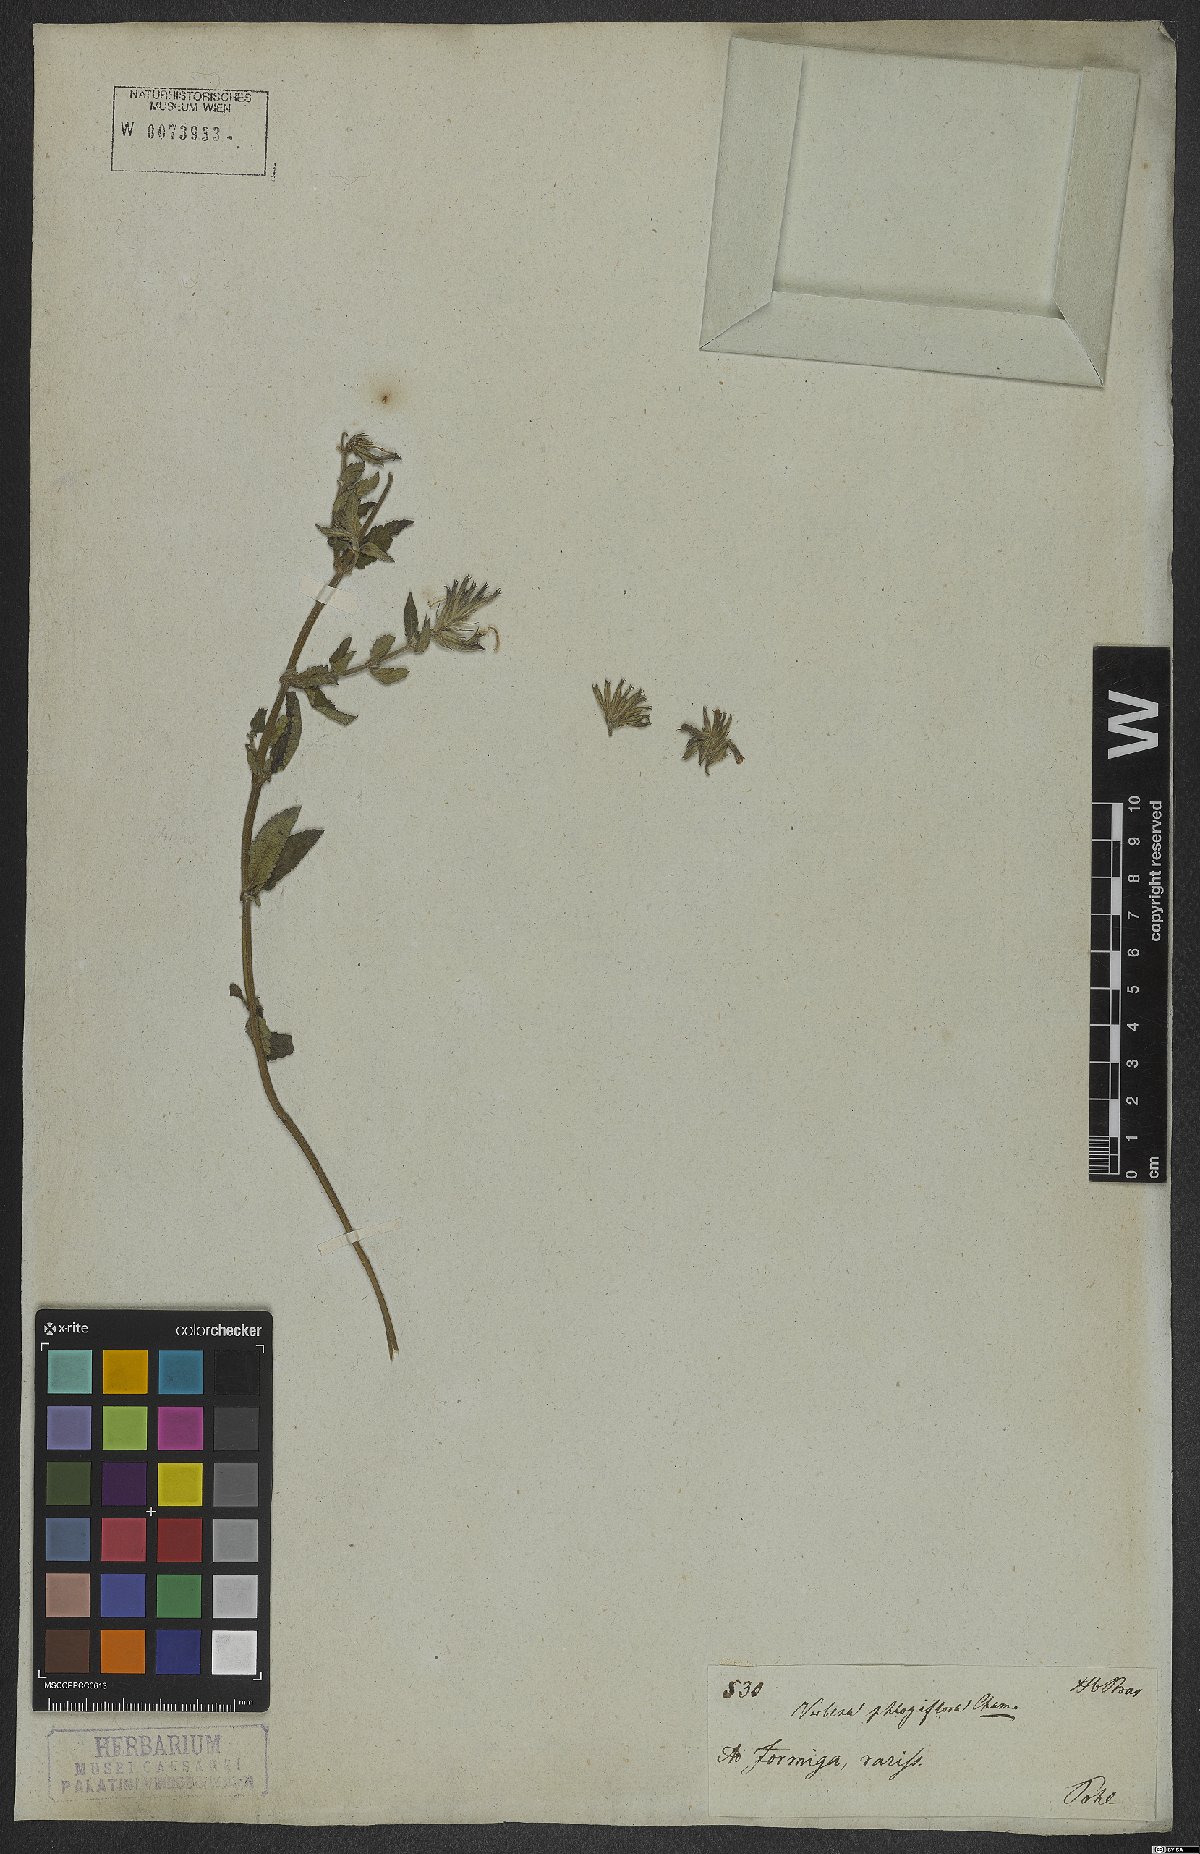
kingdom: Plantae
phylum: Tracheophyta
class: Magnoliopsida
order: Lamiales
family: Verbenaceae
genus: Verbena
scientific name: Verbena phlogiflora
